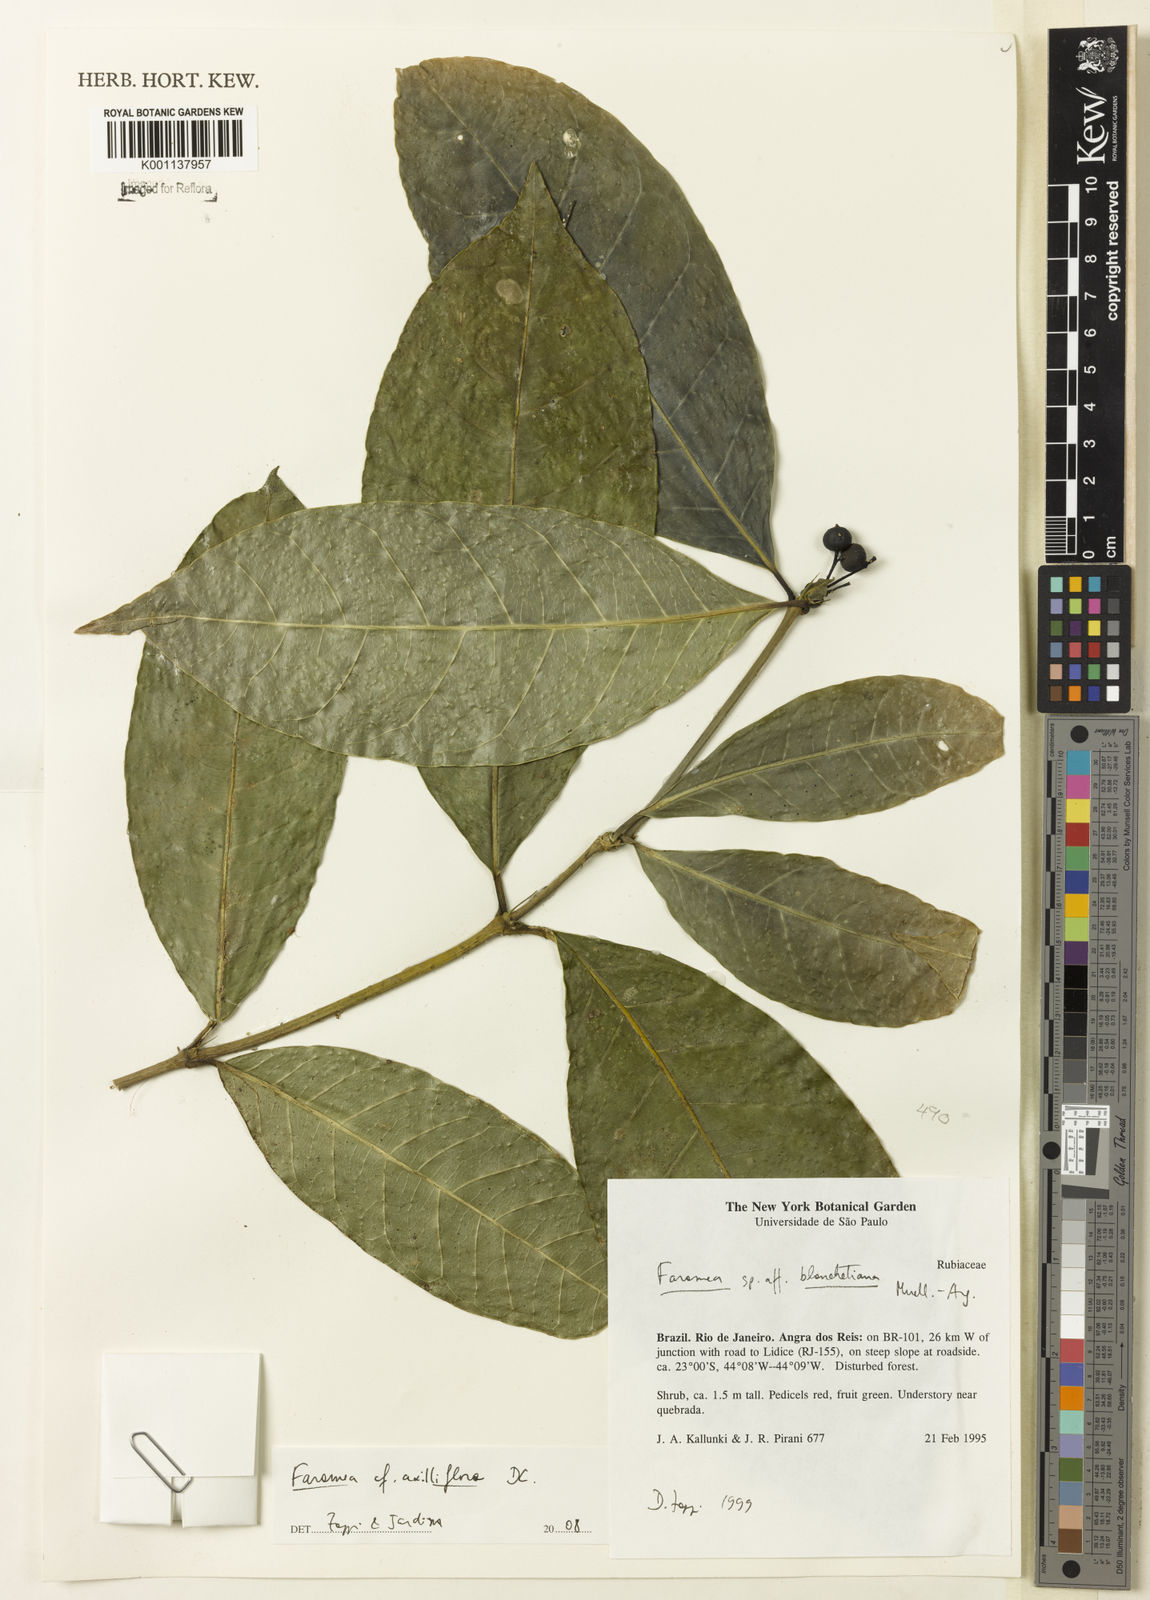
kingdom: Plantae
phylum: Tracheophyta
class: Magnoliopsida
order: Gentianales
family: Rubiaceae
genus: Faramea
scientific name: Faramea axilliflora
